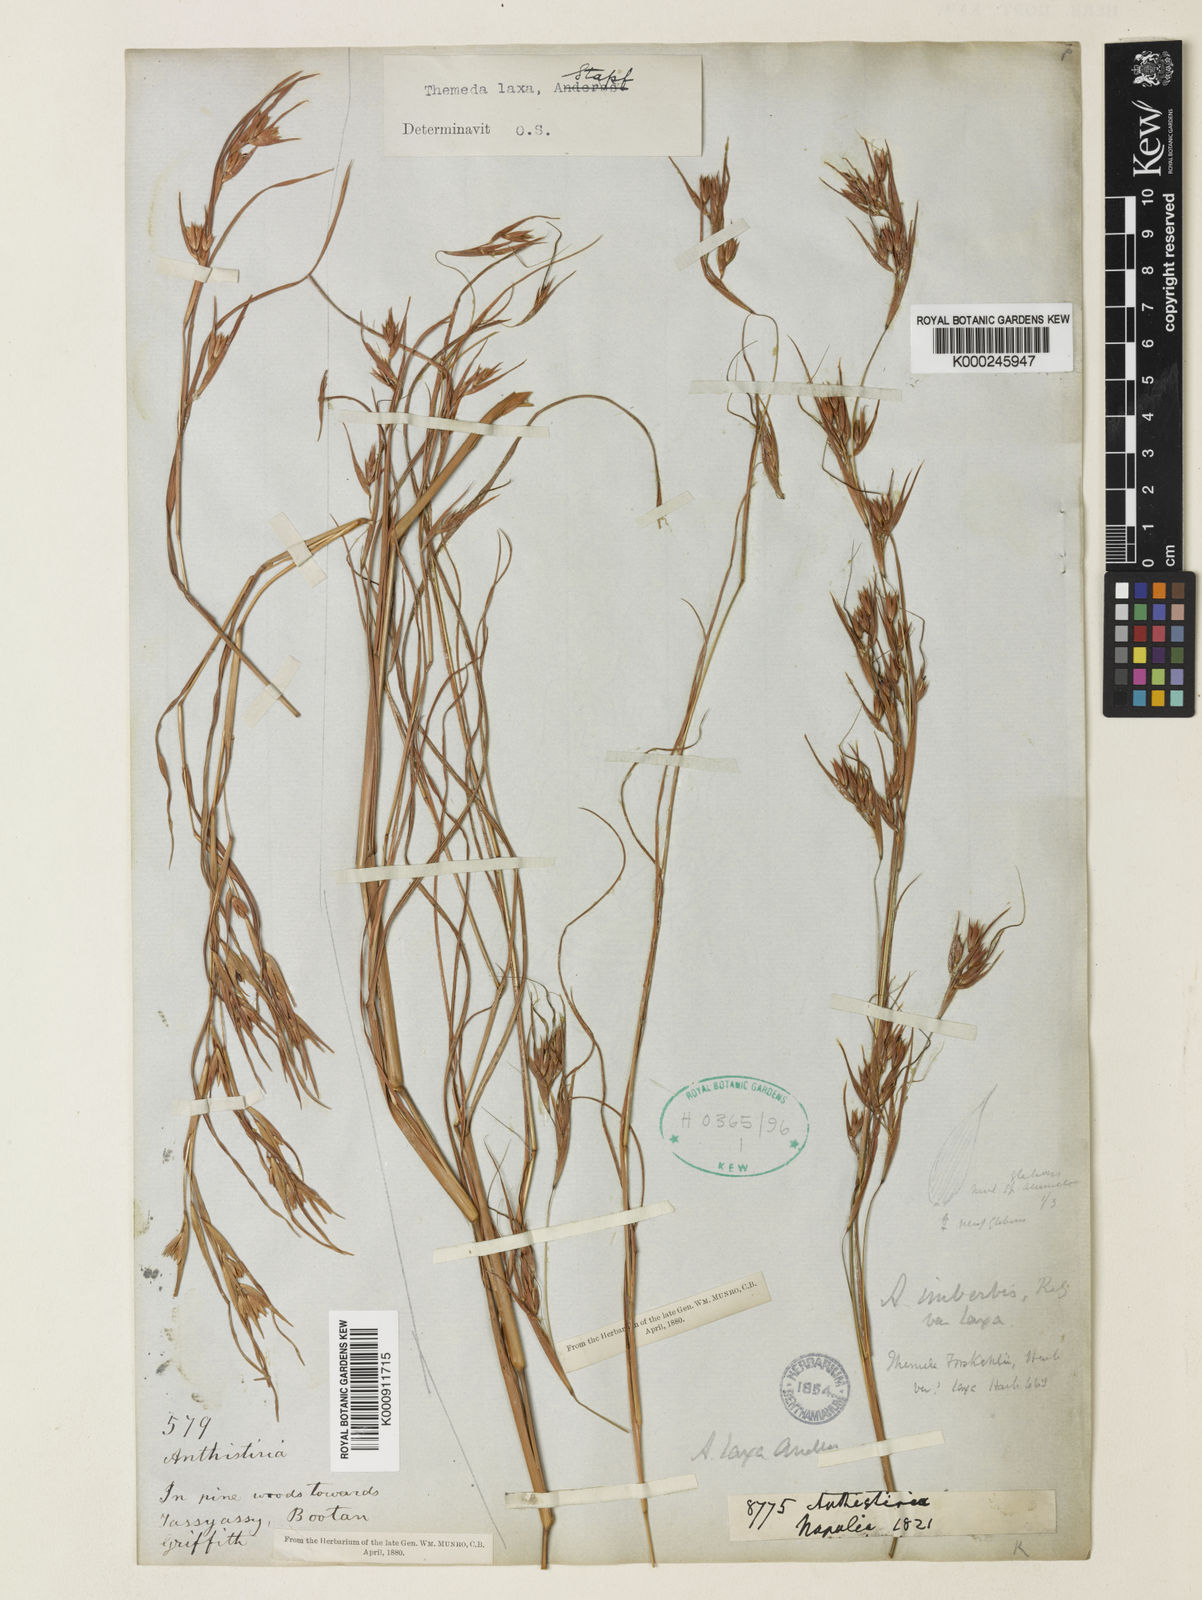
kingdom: Plantae
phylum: Tracheophyta
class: Liliopsida
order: Poales
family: Poaceae
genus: Themeda
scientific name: Themeda triandra
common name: Kangaroo grass
